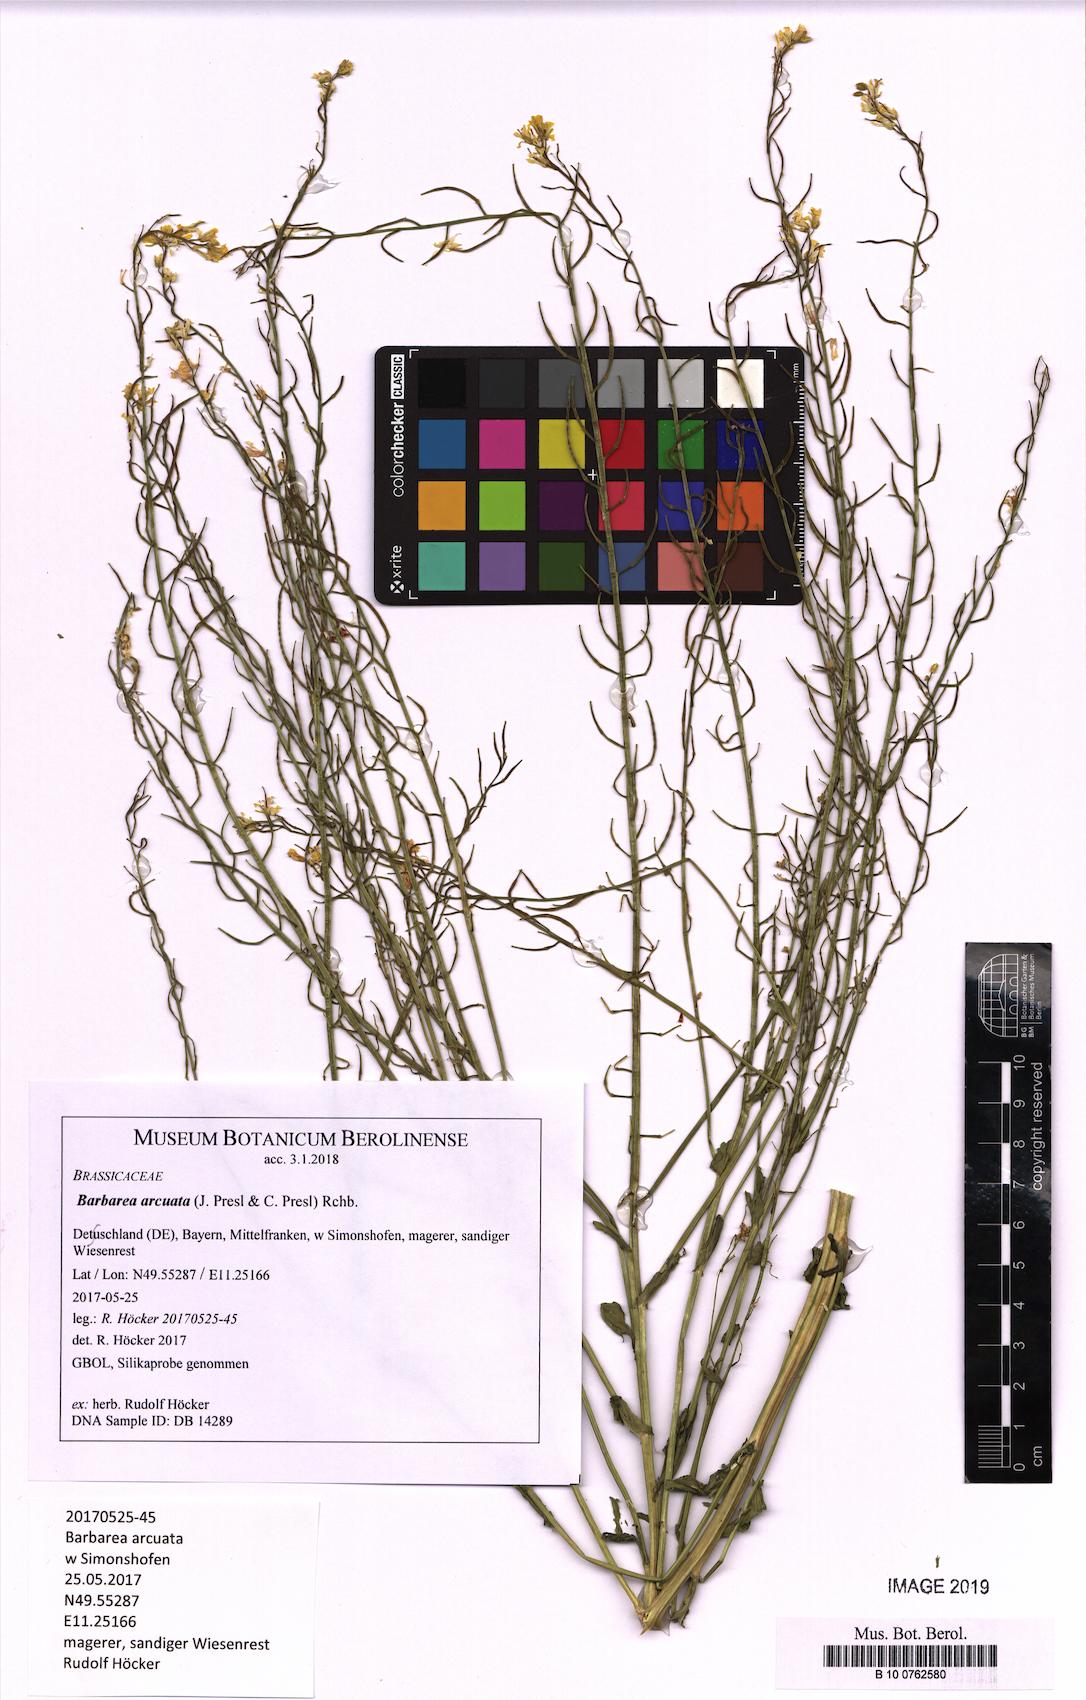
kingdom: Plantae
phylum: Tracheophyta
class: Magnoliopsida
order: Brassicales
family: Brassicaceae
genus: Barbarea
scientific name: Barbarea vulgaris
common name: Cressy-greens
